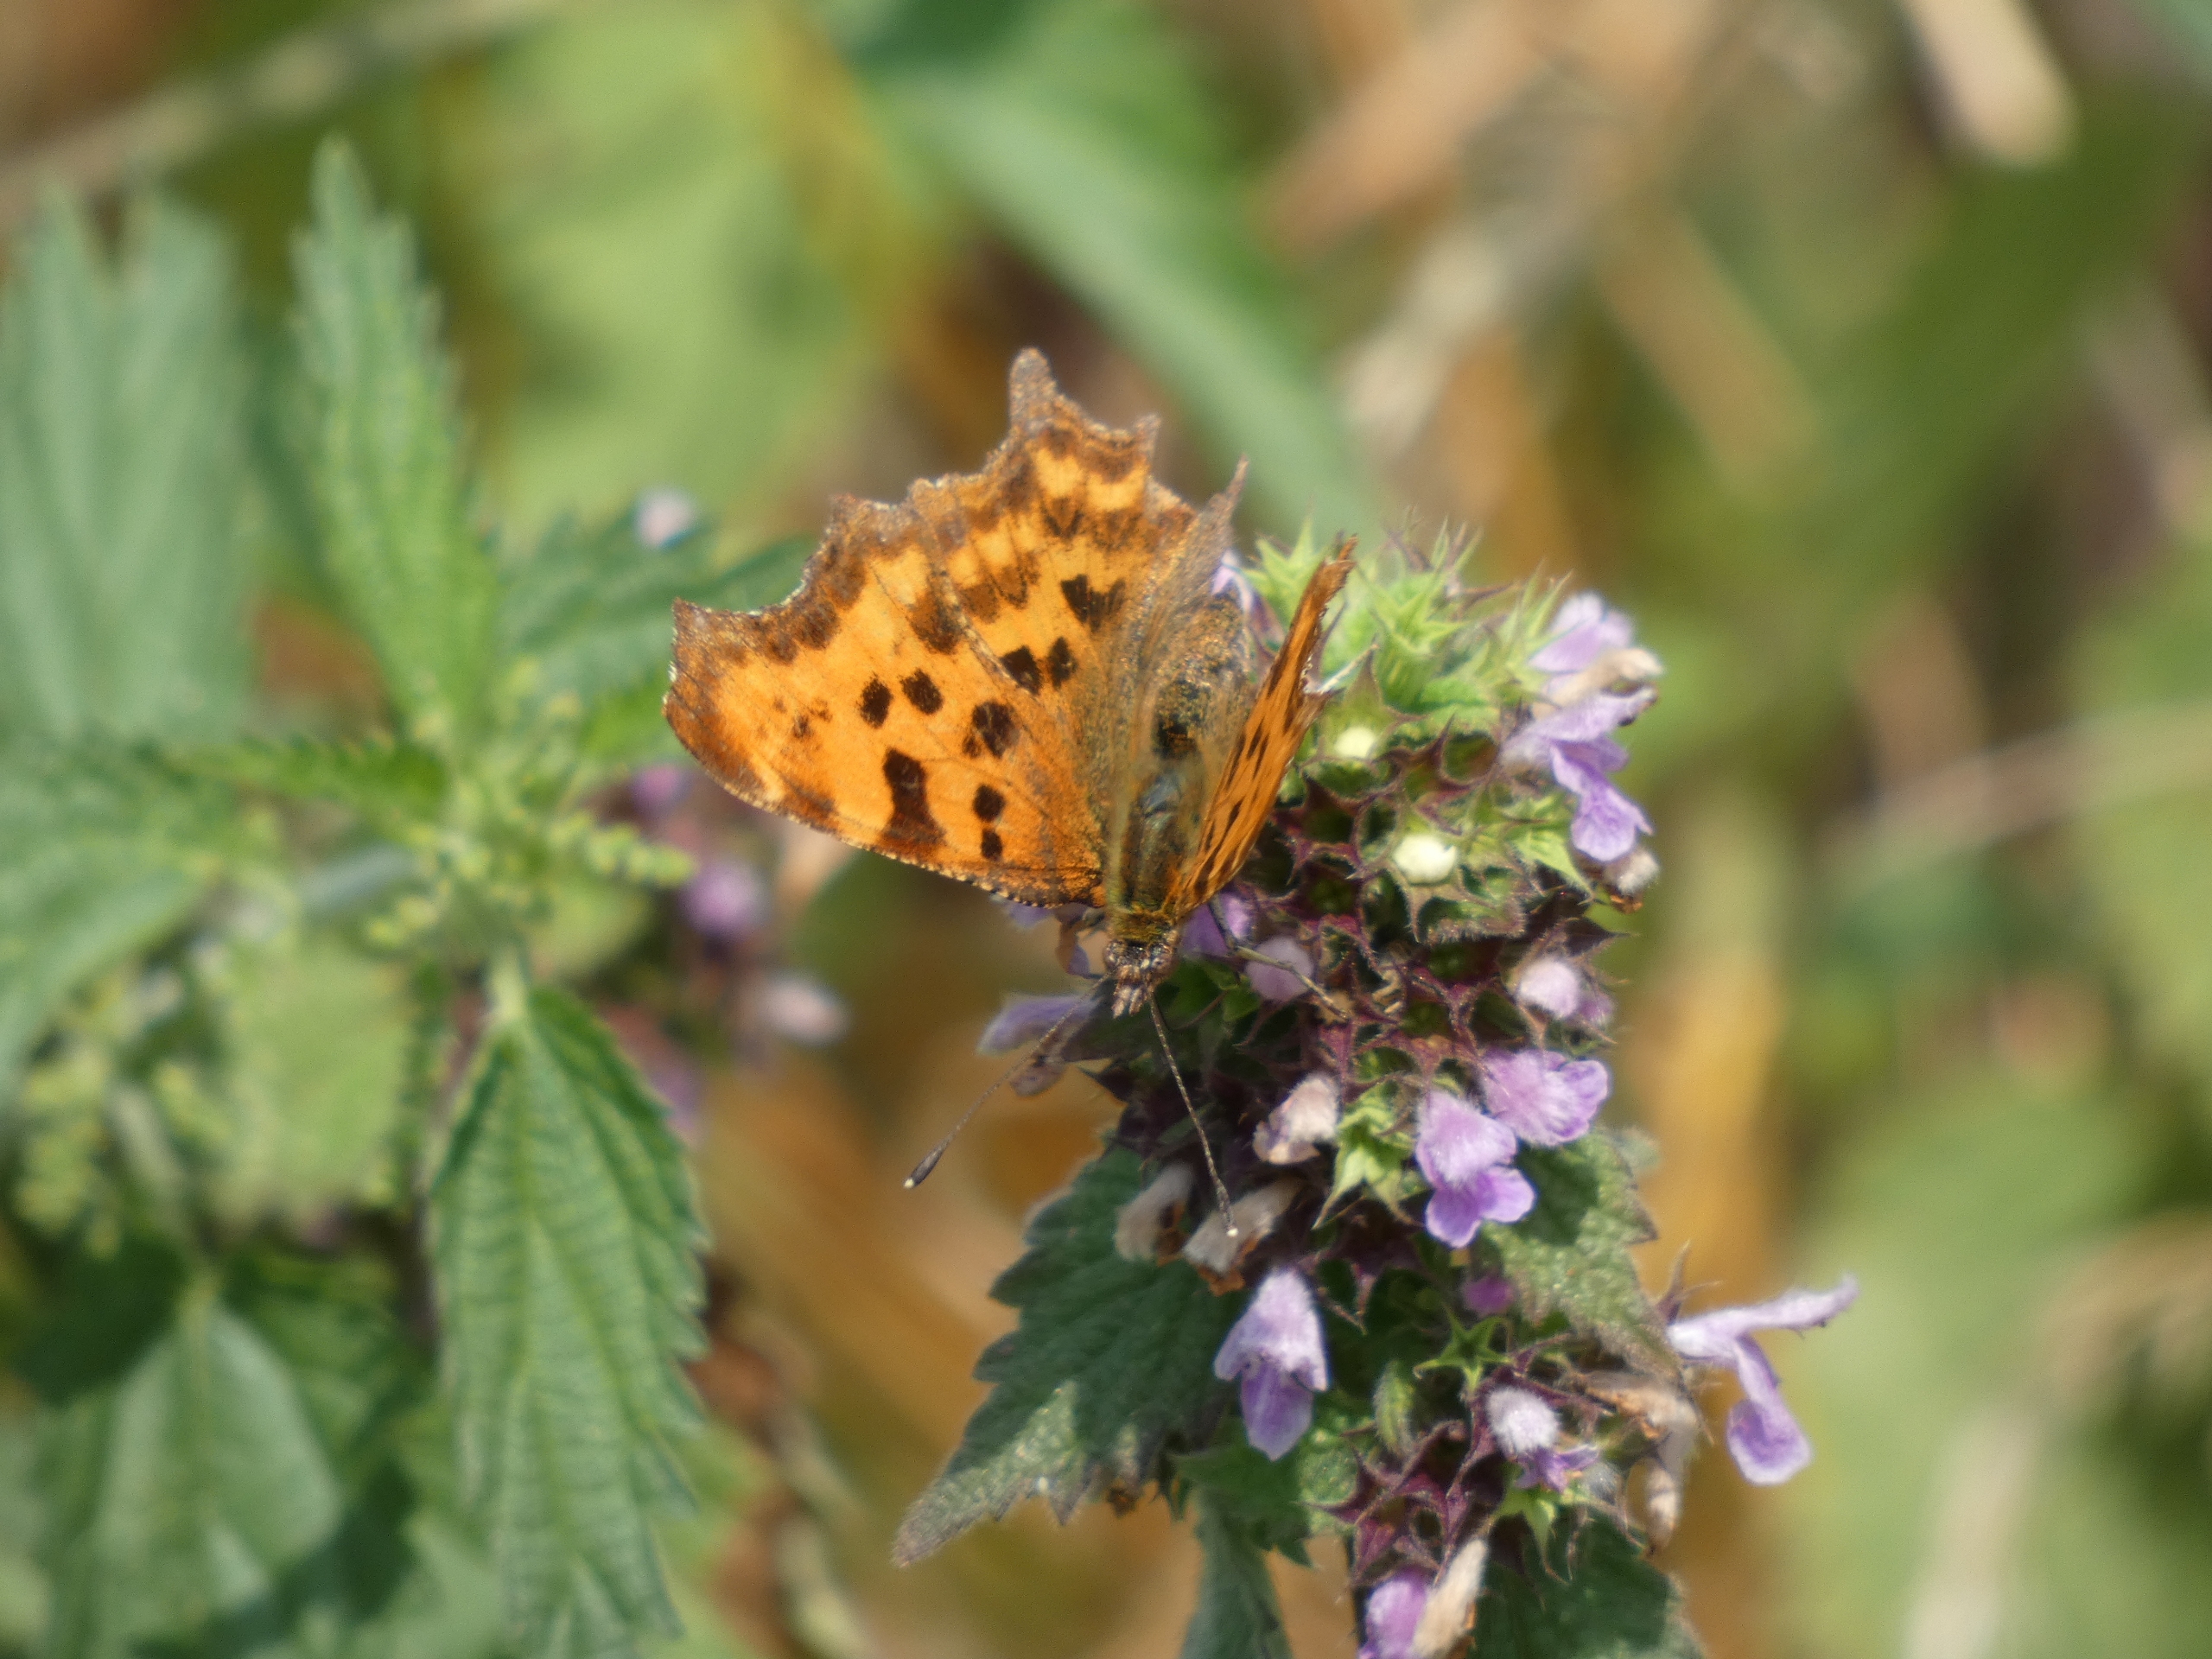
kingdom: Animalia
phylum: Arthropoda
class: Insecta
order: Lepidoptera
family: Nymphalidae
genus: Polygonia
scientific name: Polygonia c-album
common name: Det hvide C
